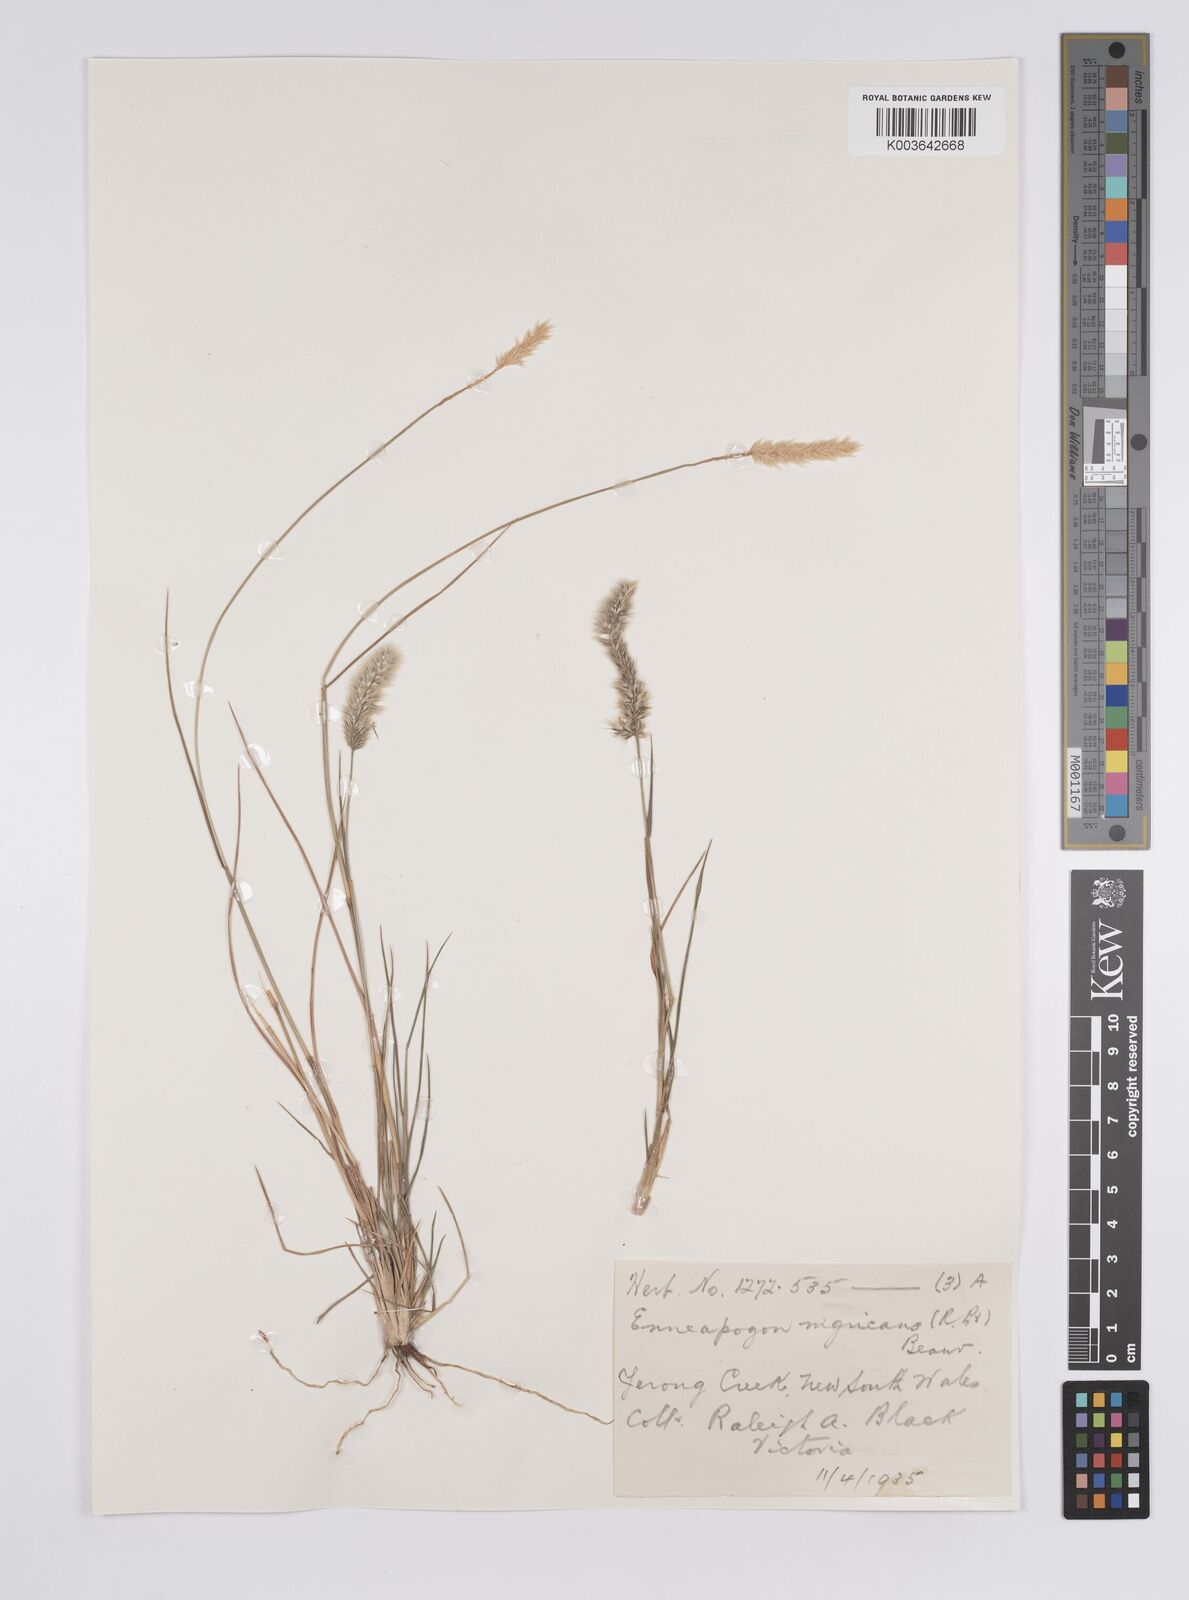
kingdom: Plantae
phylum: Tracheophyta
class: Liliopsida
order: Poales
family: Poaceae
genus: Enneapogon
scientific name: Enneapogon nigricans
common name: Pappus grass
